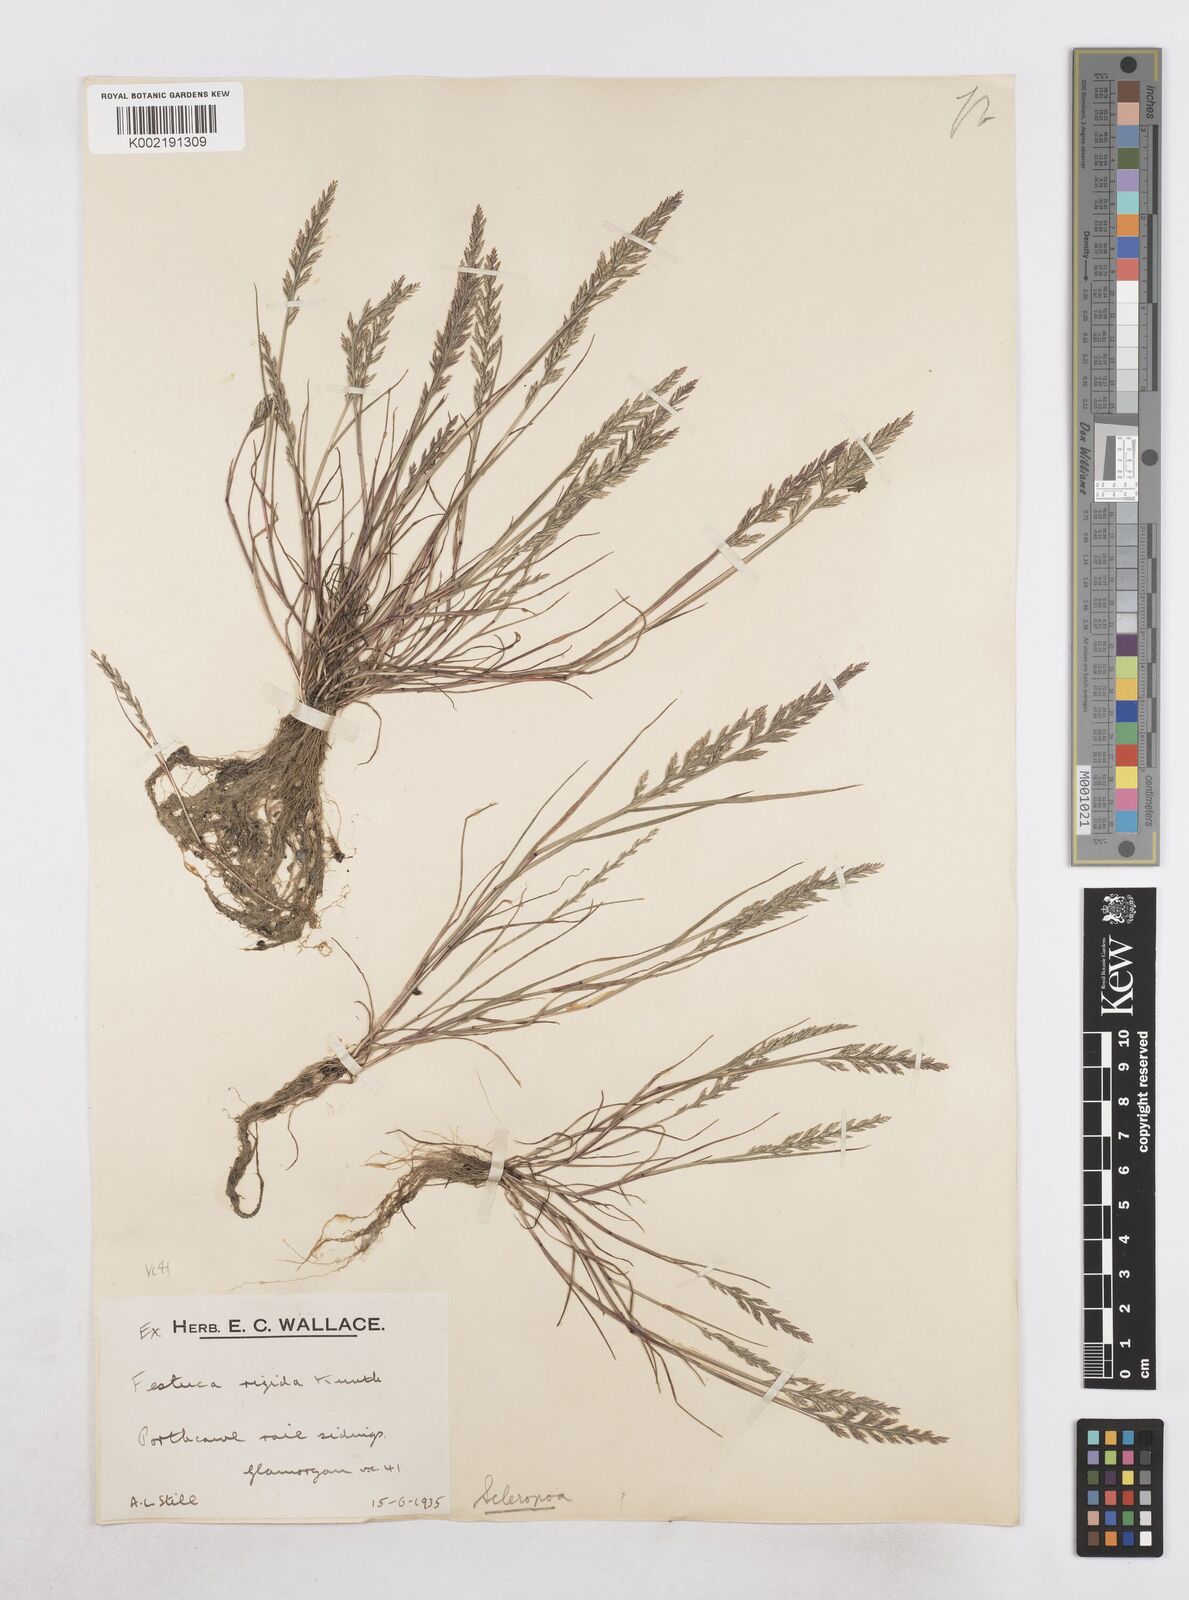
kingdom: Plantae
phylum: Tracheophyta
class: Liliopsida
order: Poales
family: Poaceae
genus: Catapodium
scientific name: Catapodium rigidum
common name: Fern-grass
